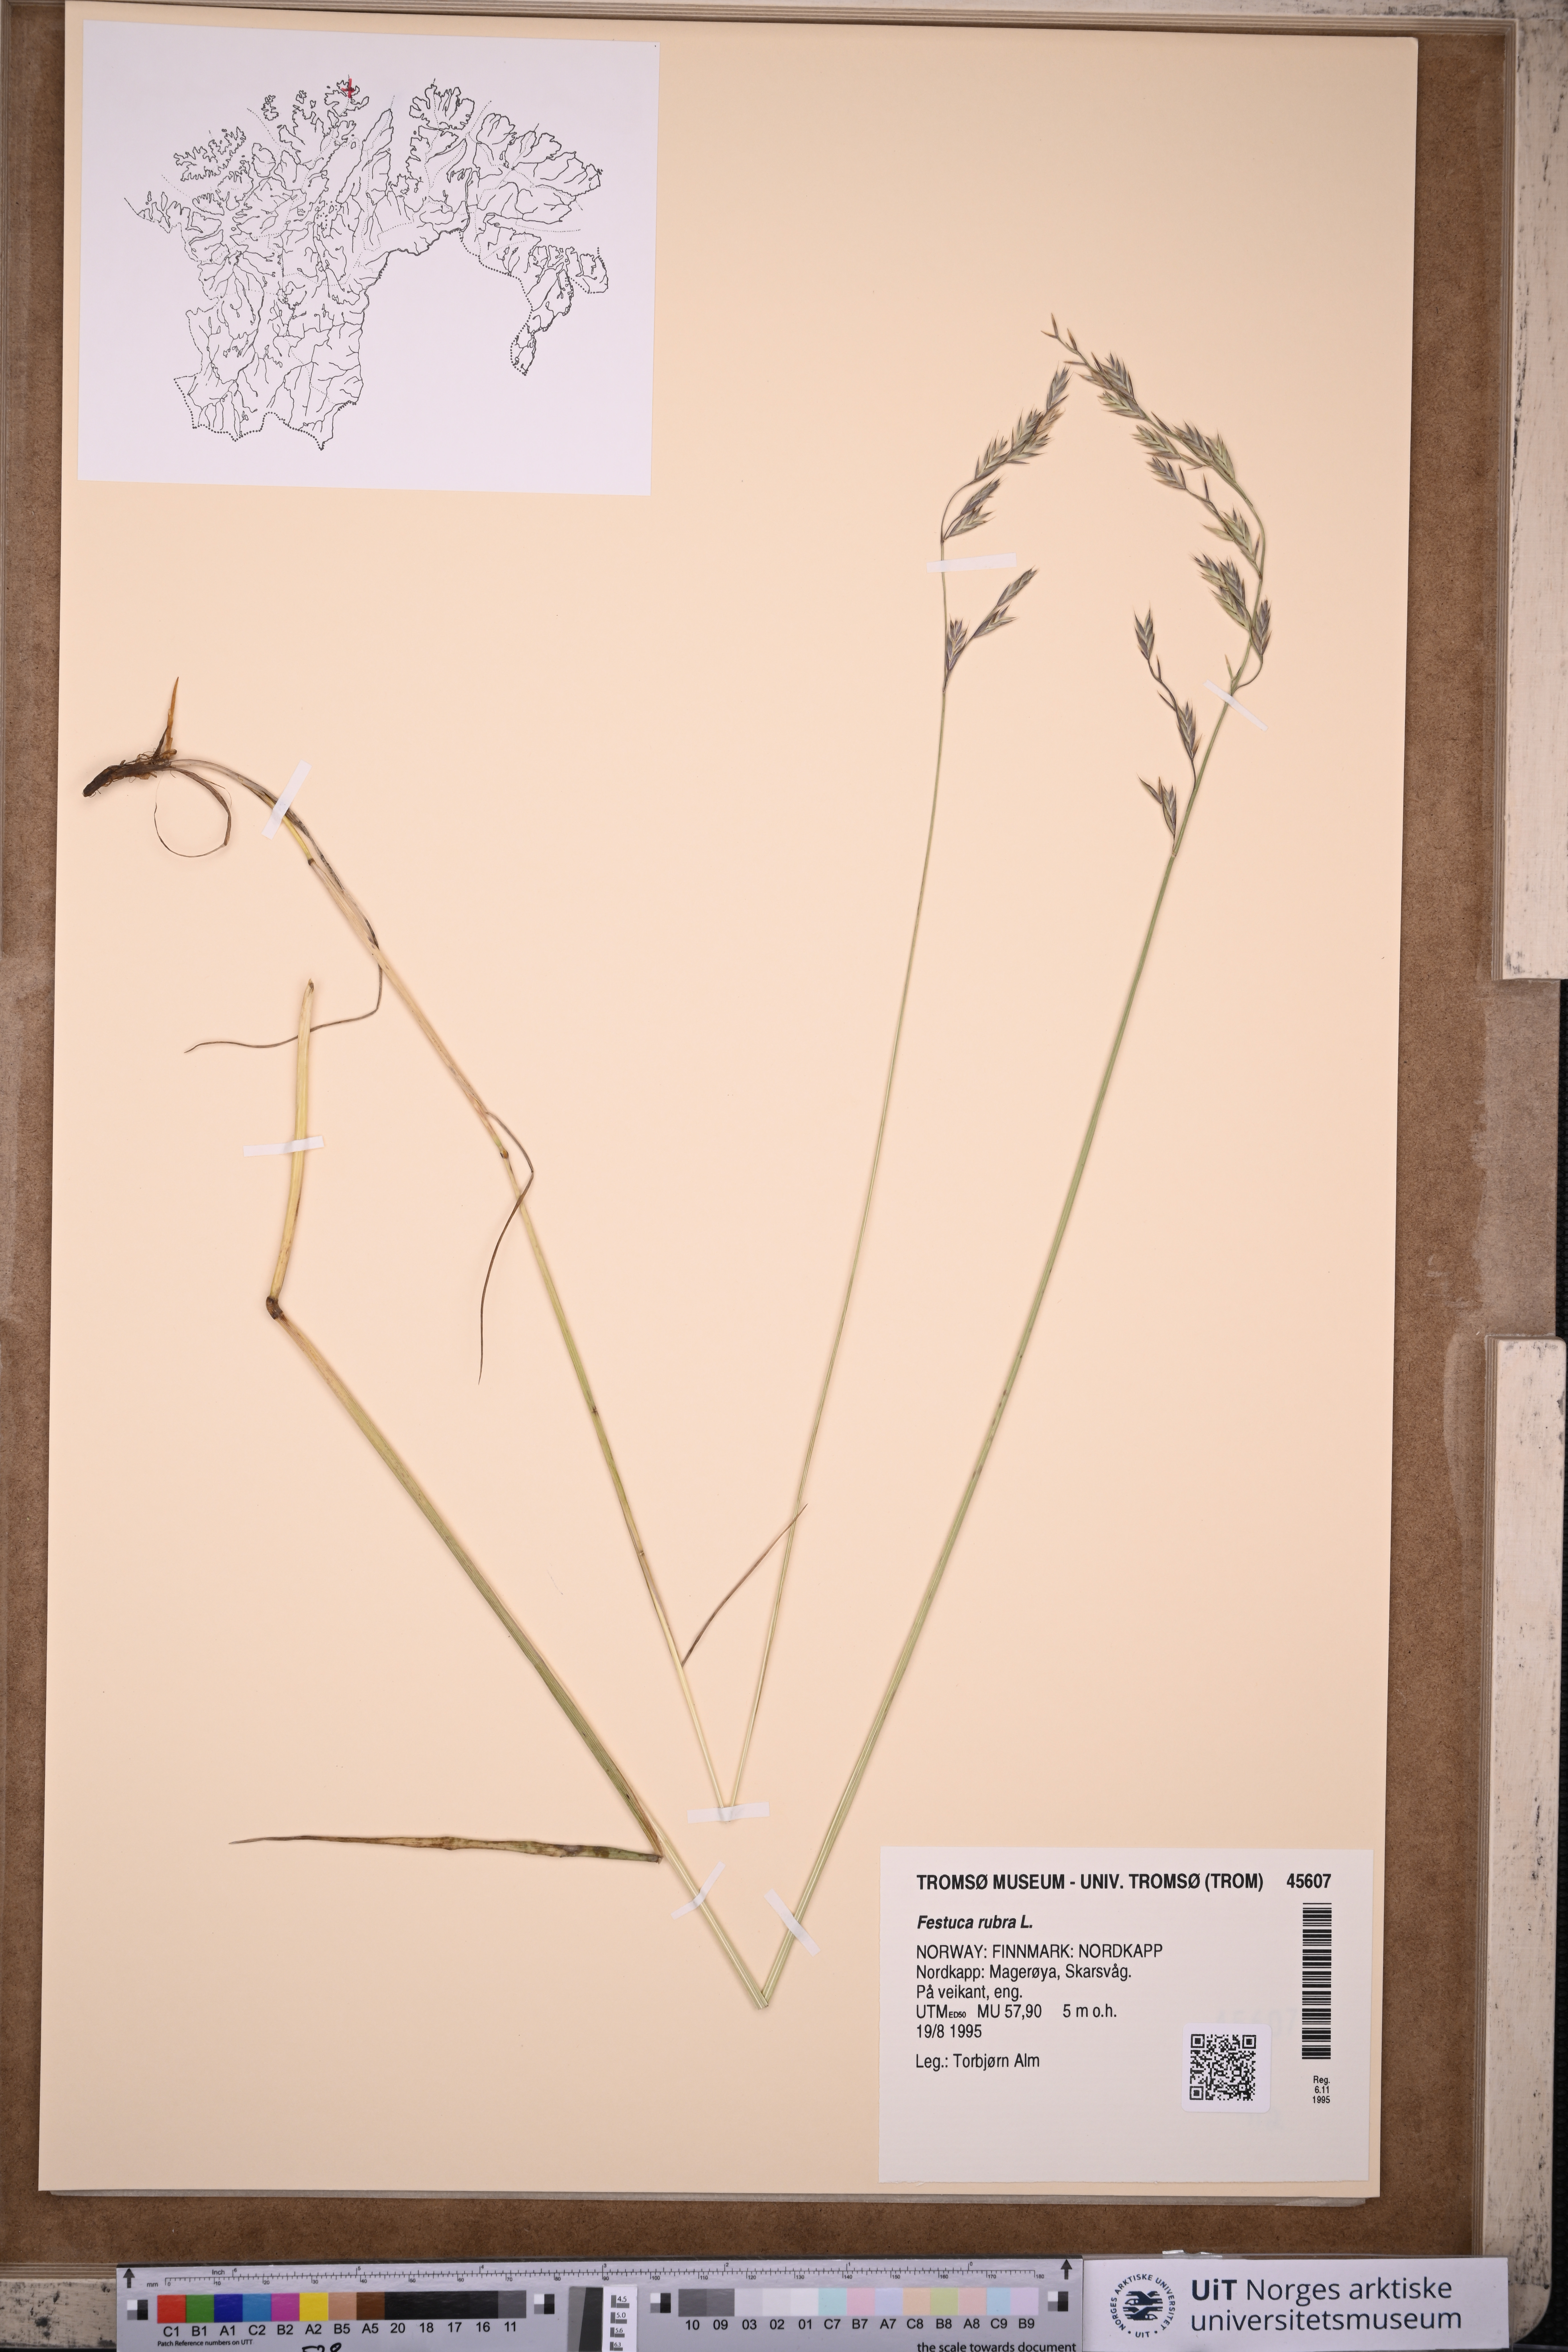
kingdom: Plantae
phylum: Tracheophyta
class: Liliopsida
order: Poales
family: Poaceae
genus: Festuca
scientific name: Festuca rubra
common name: Red fescue
